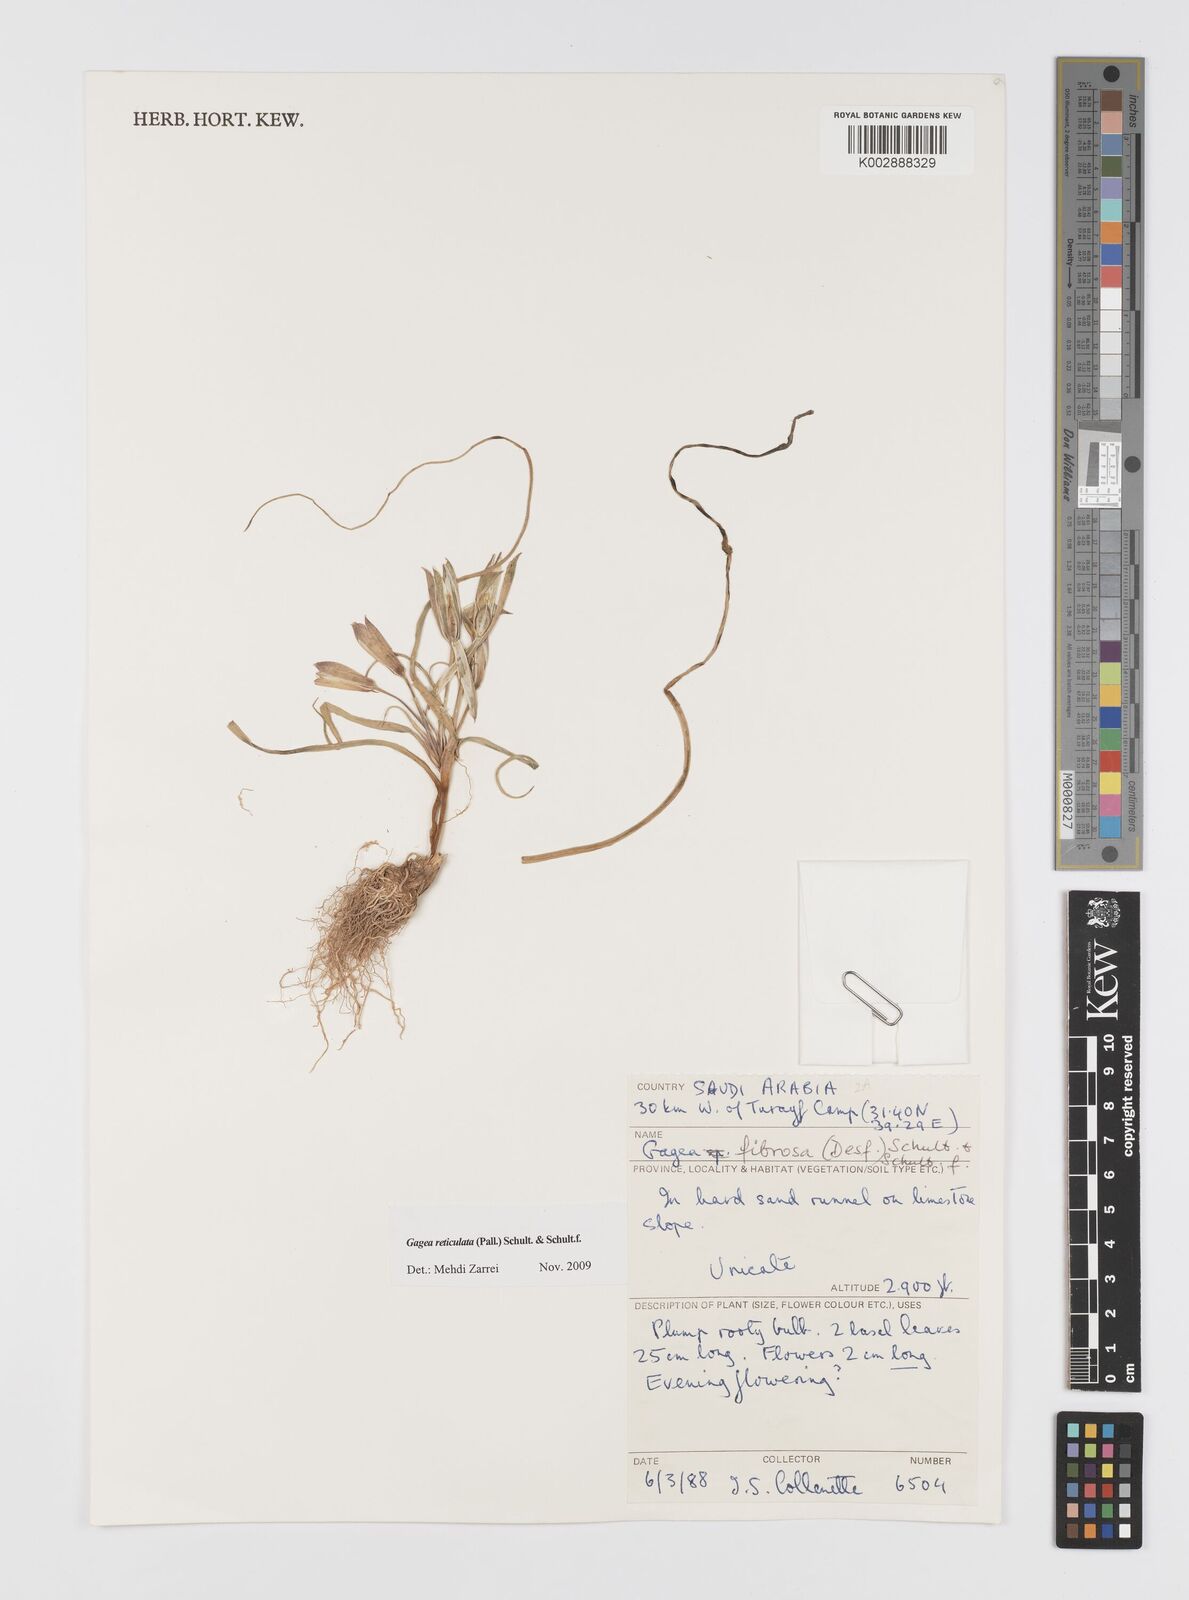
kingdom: Plantae
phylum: Tracheophyta
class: Liliopsida
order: Liliales
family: Liliaceae
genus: Gagea
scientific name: Gagea reticulata
